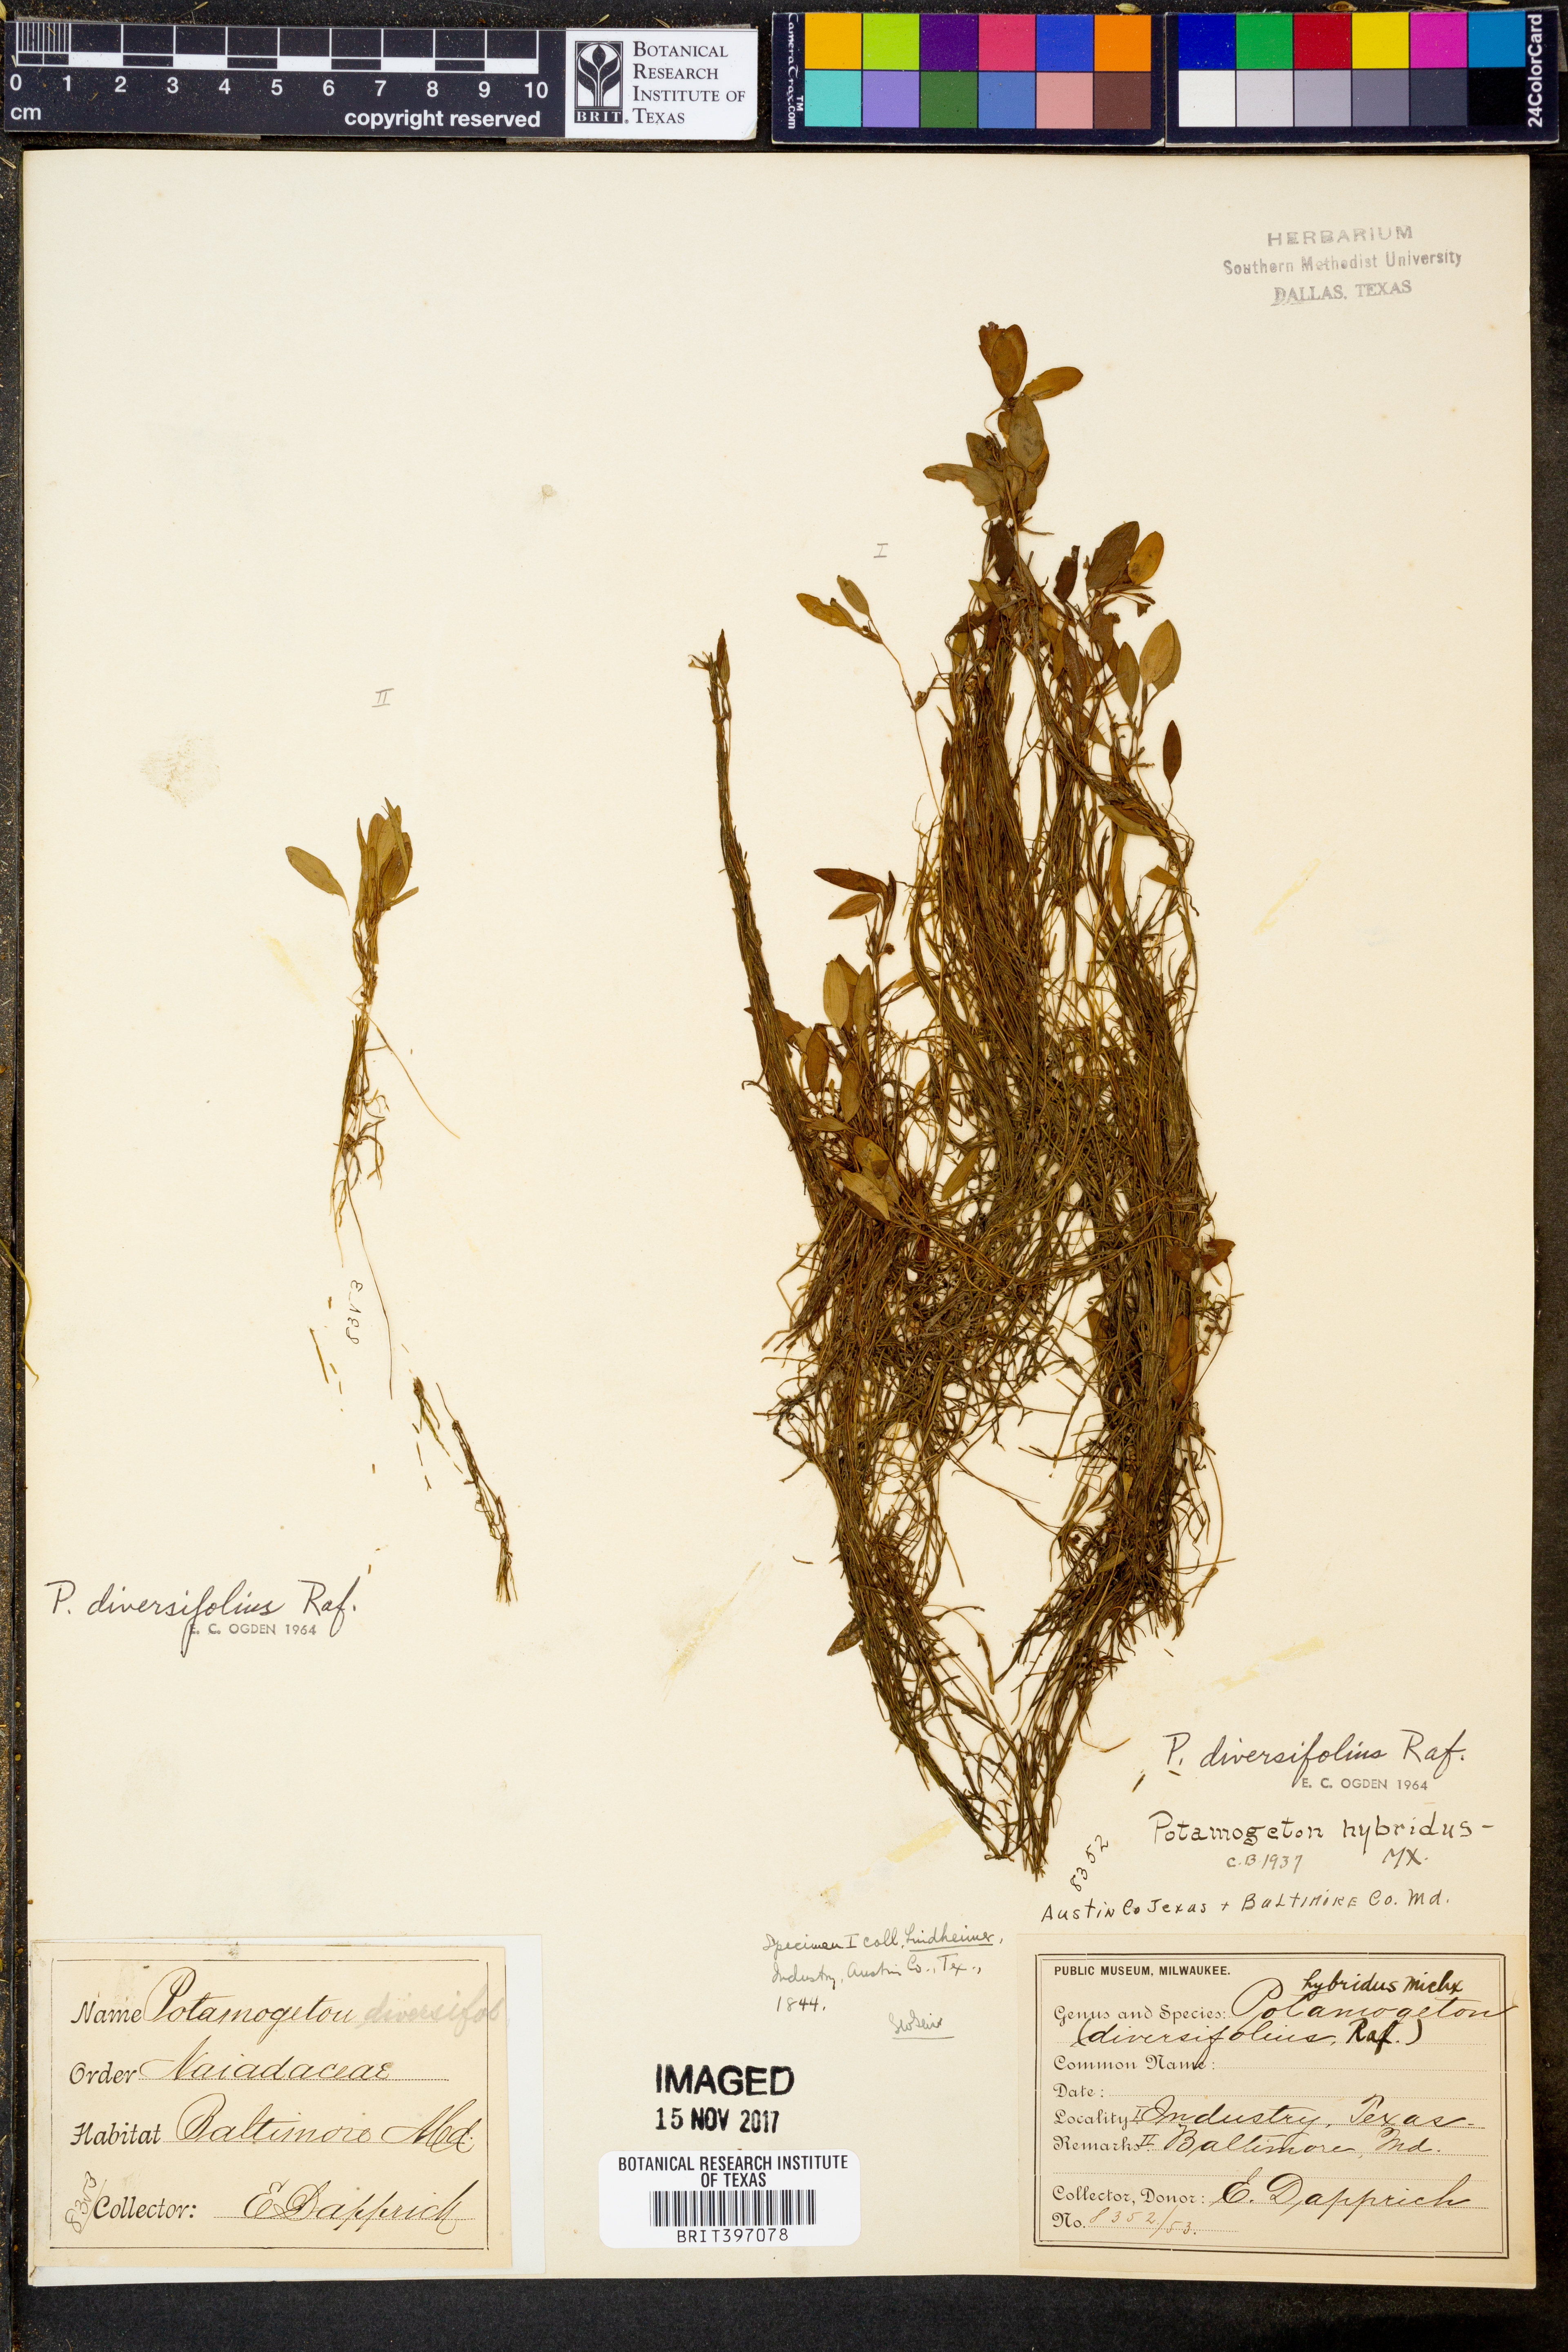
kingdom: Plantae
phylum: Tracheophyta
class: Liliopsida
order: Alismatales
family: Potamogetonaceae
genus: Potamogeton
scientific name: Potamogeton diversifolius
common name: Water-thread pondweed
